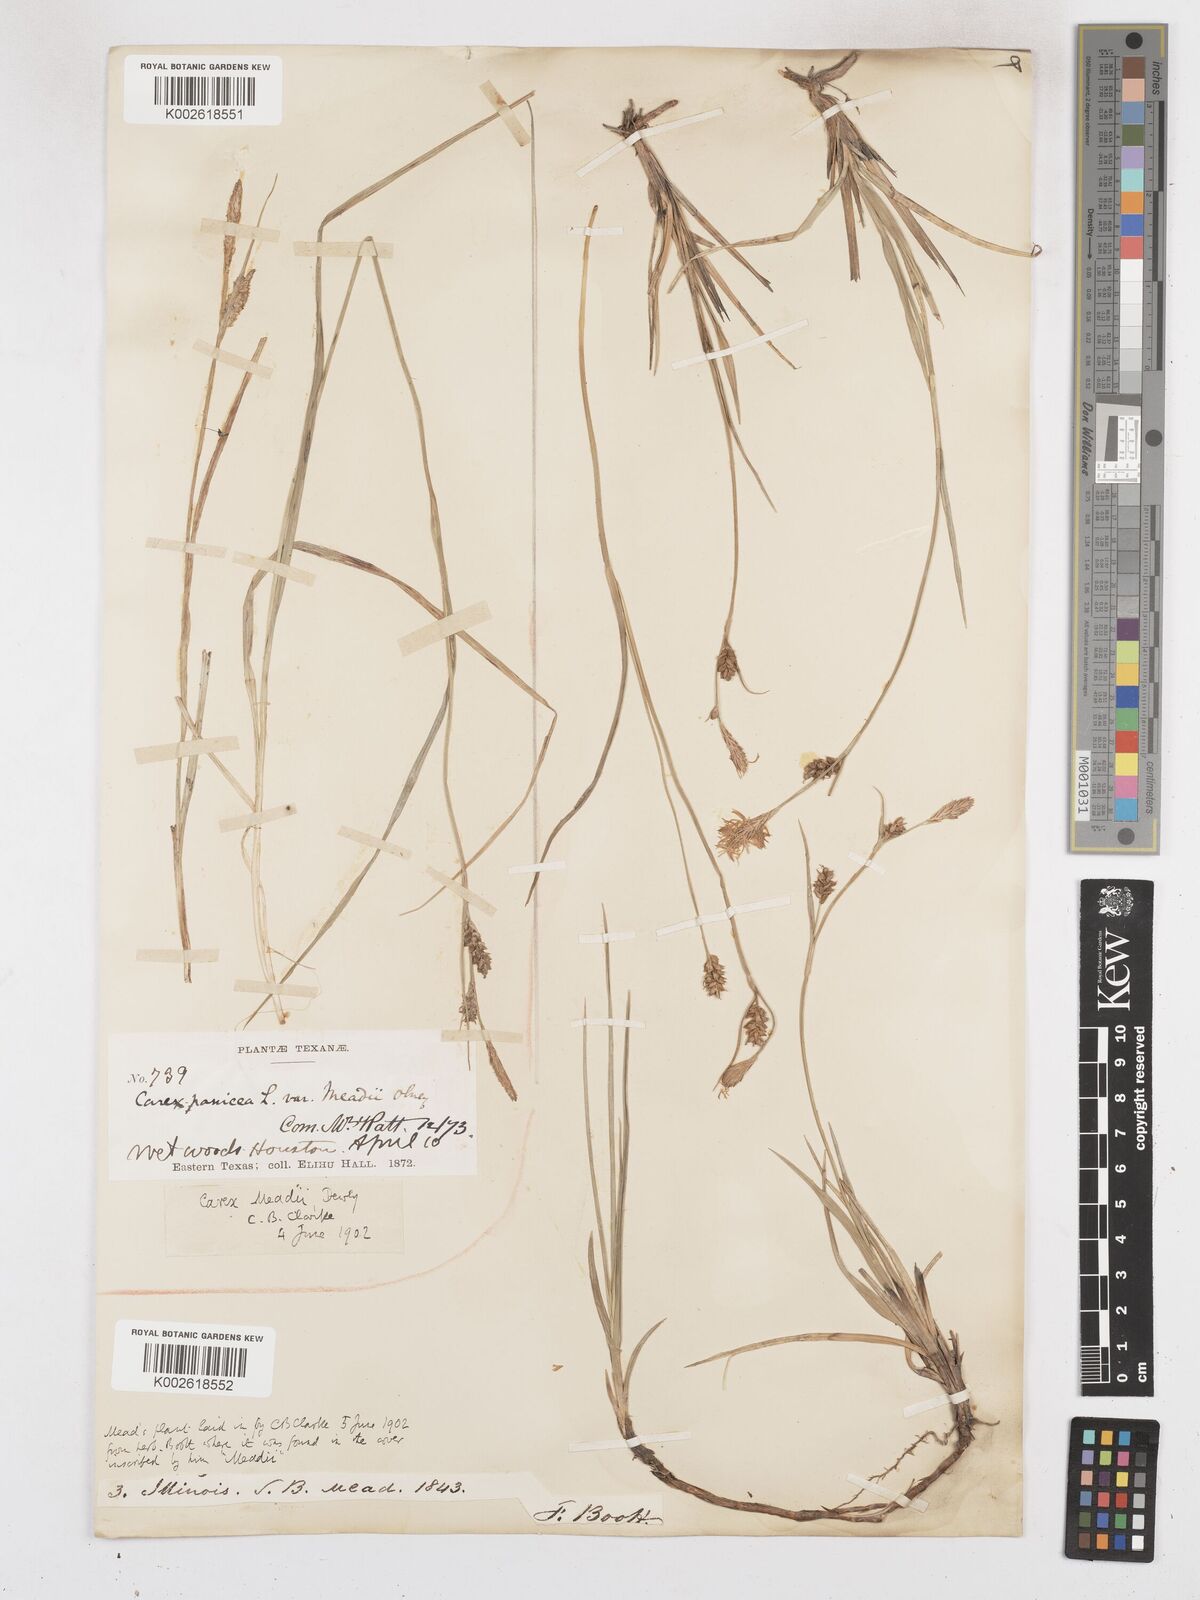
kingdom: Plantae
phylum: Tracheophyta
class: Liliopsida
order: Poales
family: Cyperaceae
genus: Carex
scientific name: Carex meadii
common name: Mead's sedge
